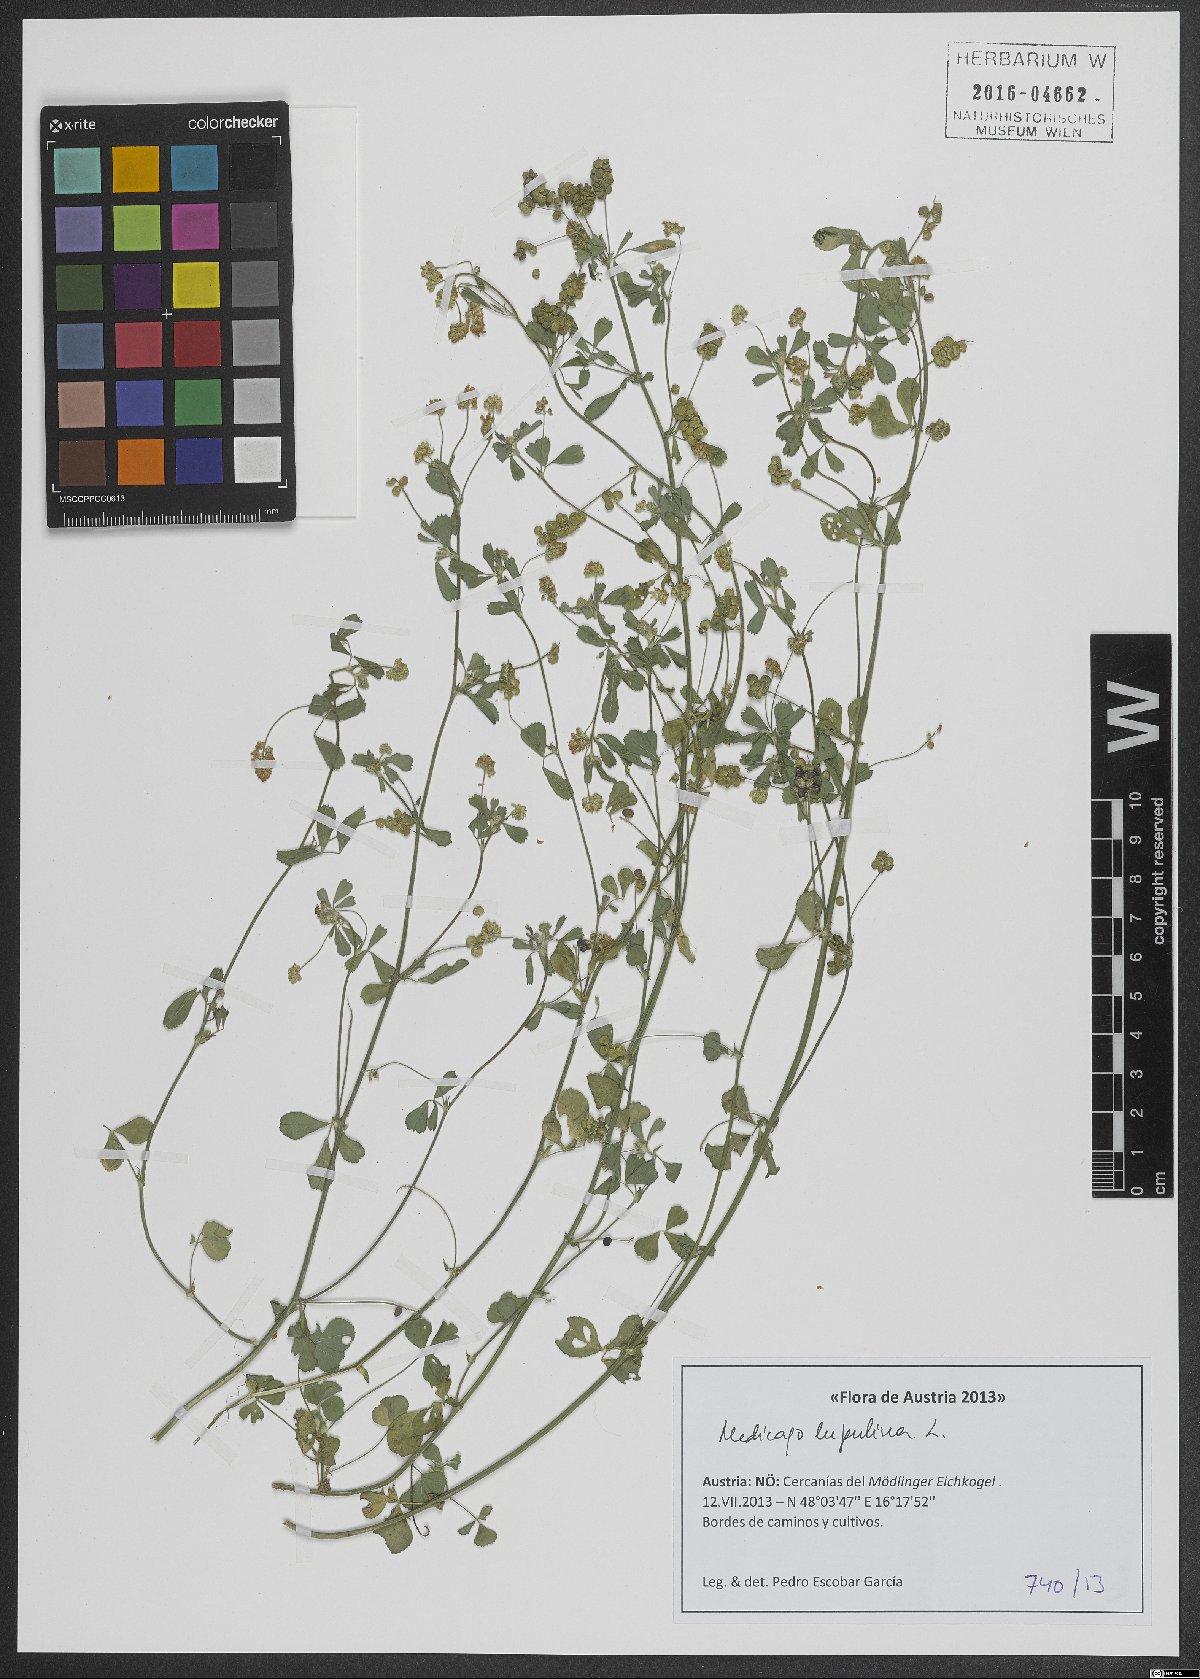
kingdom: Plantae
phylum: Tracheophyta
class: Magnoliopsida
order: Fabales
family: Fabaceae
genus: Medicago
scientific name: Medicago lupulina
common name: Black medick
